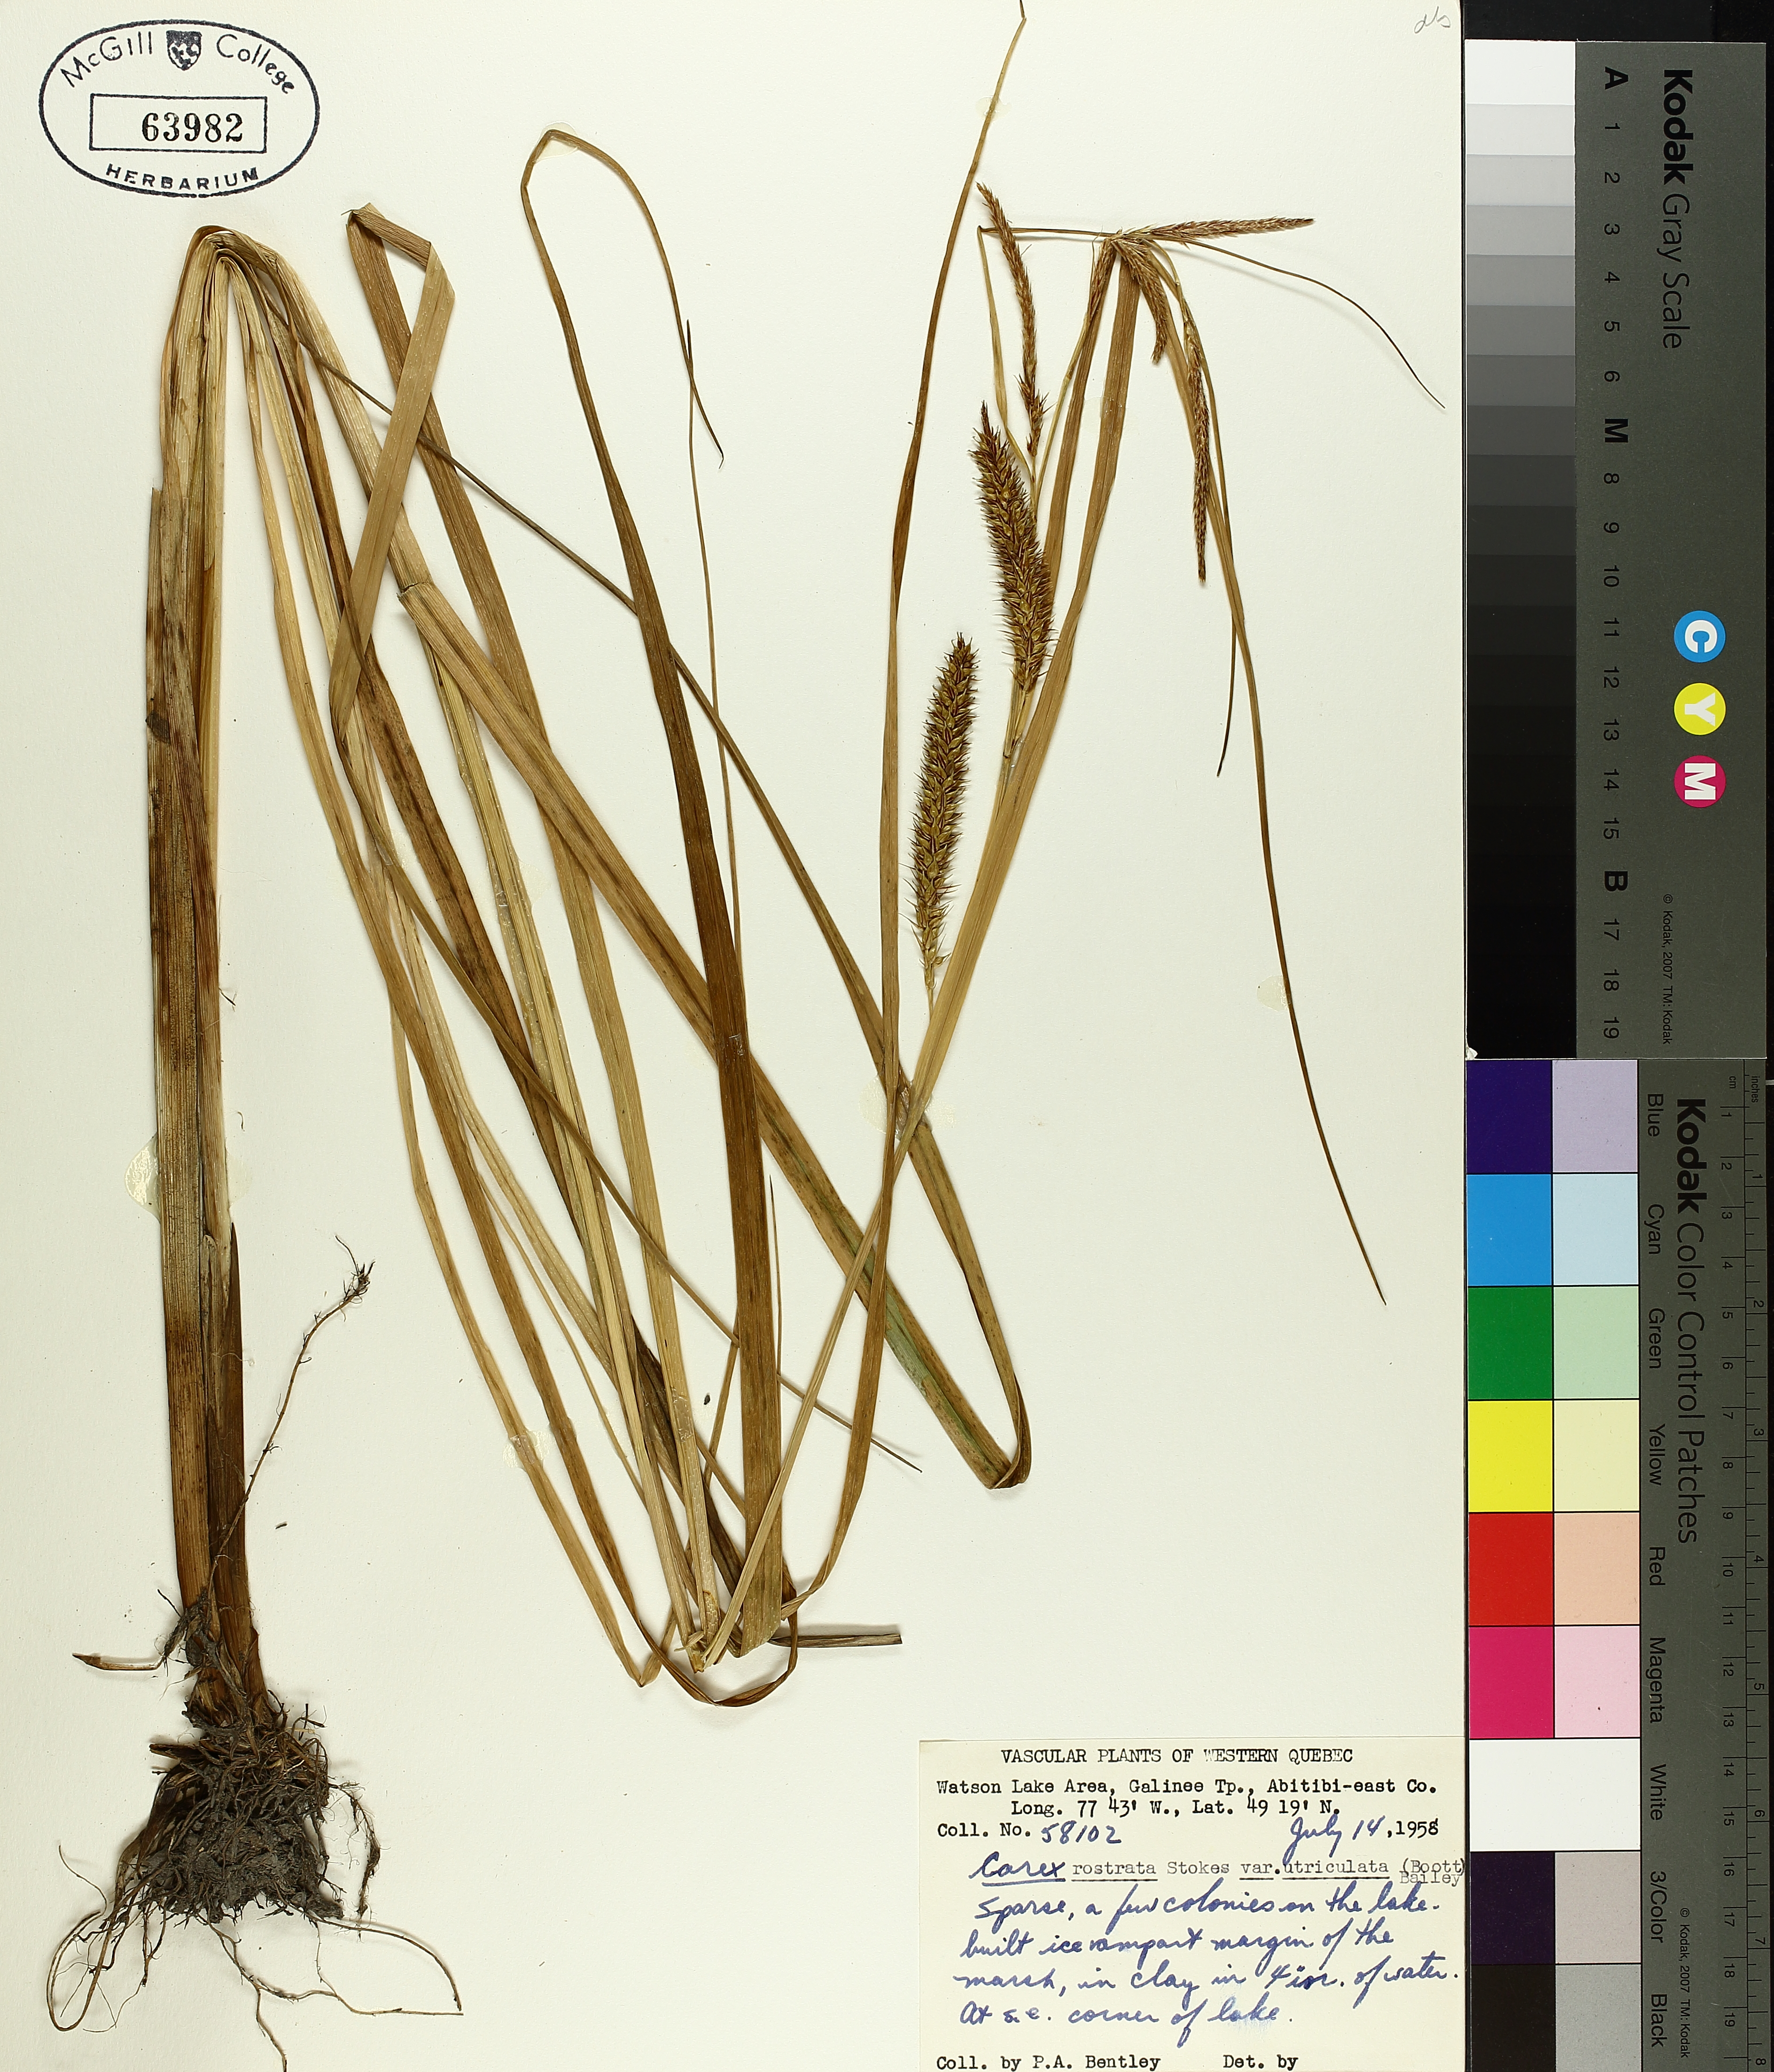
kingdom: Plantae
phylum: Tracheophyta
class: Liliopsida
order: Poales
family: Cyperaceae
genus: Carex
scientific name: Carex utriculata
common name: Beaked sedge
